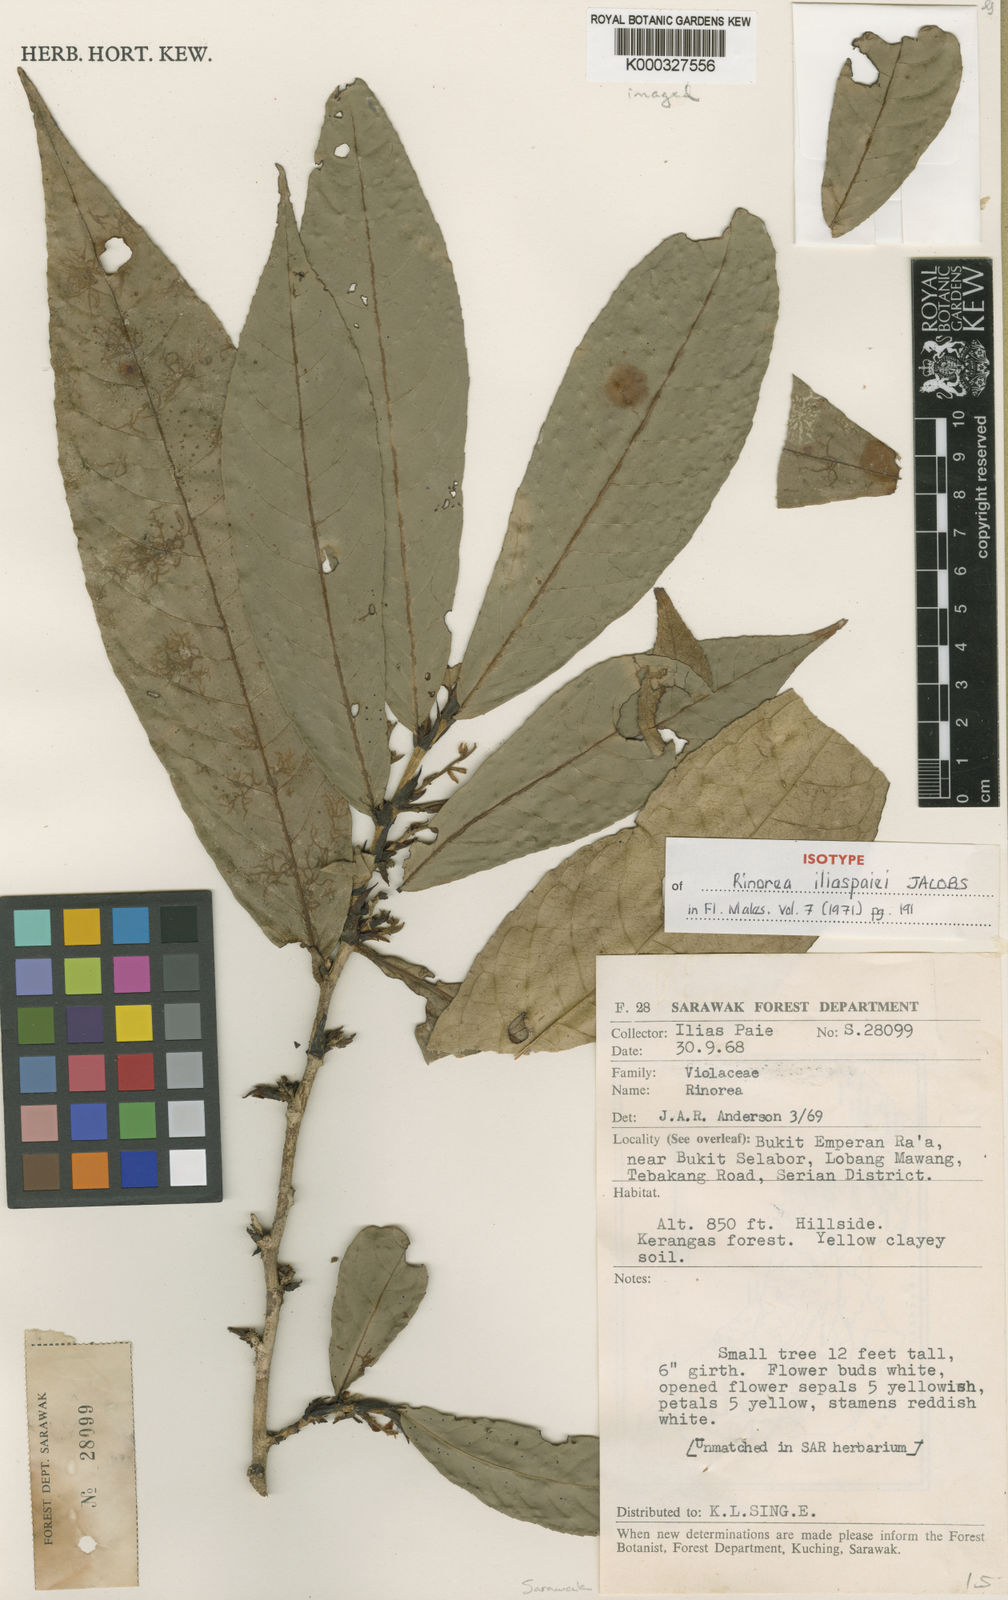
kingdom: Plantae
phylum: Tracheophyta
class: Magnoliopsida
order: Malpighiales
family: Violaceae
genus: Rinorea
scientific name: Rinorea iliaspaiei
